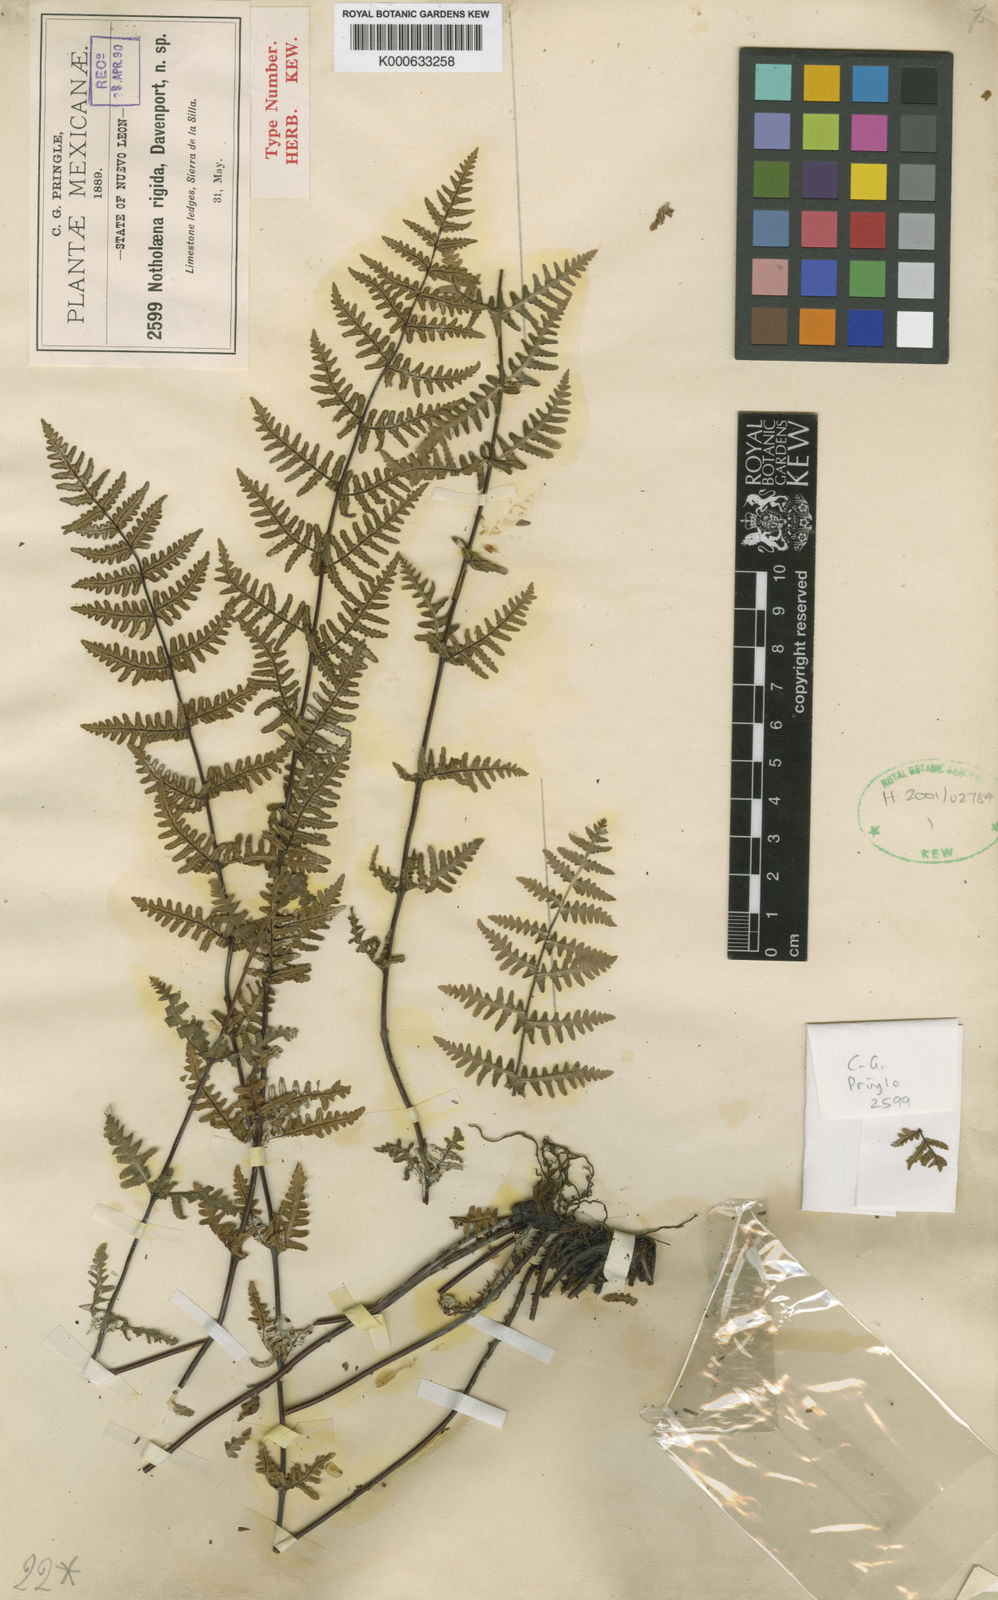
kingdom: Plantae
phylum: Tracheophyta
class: Polypodiopsida
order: Polypodiales
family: Pteridaceae
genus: Cheilanthes
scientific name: Cheilanthes
